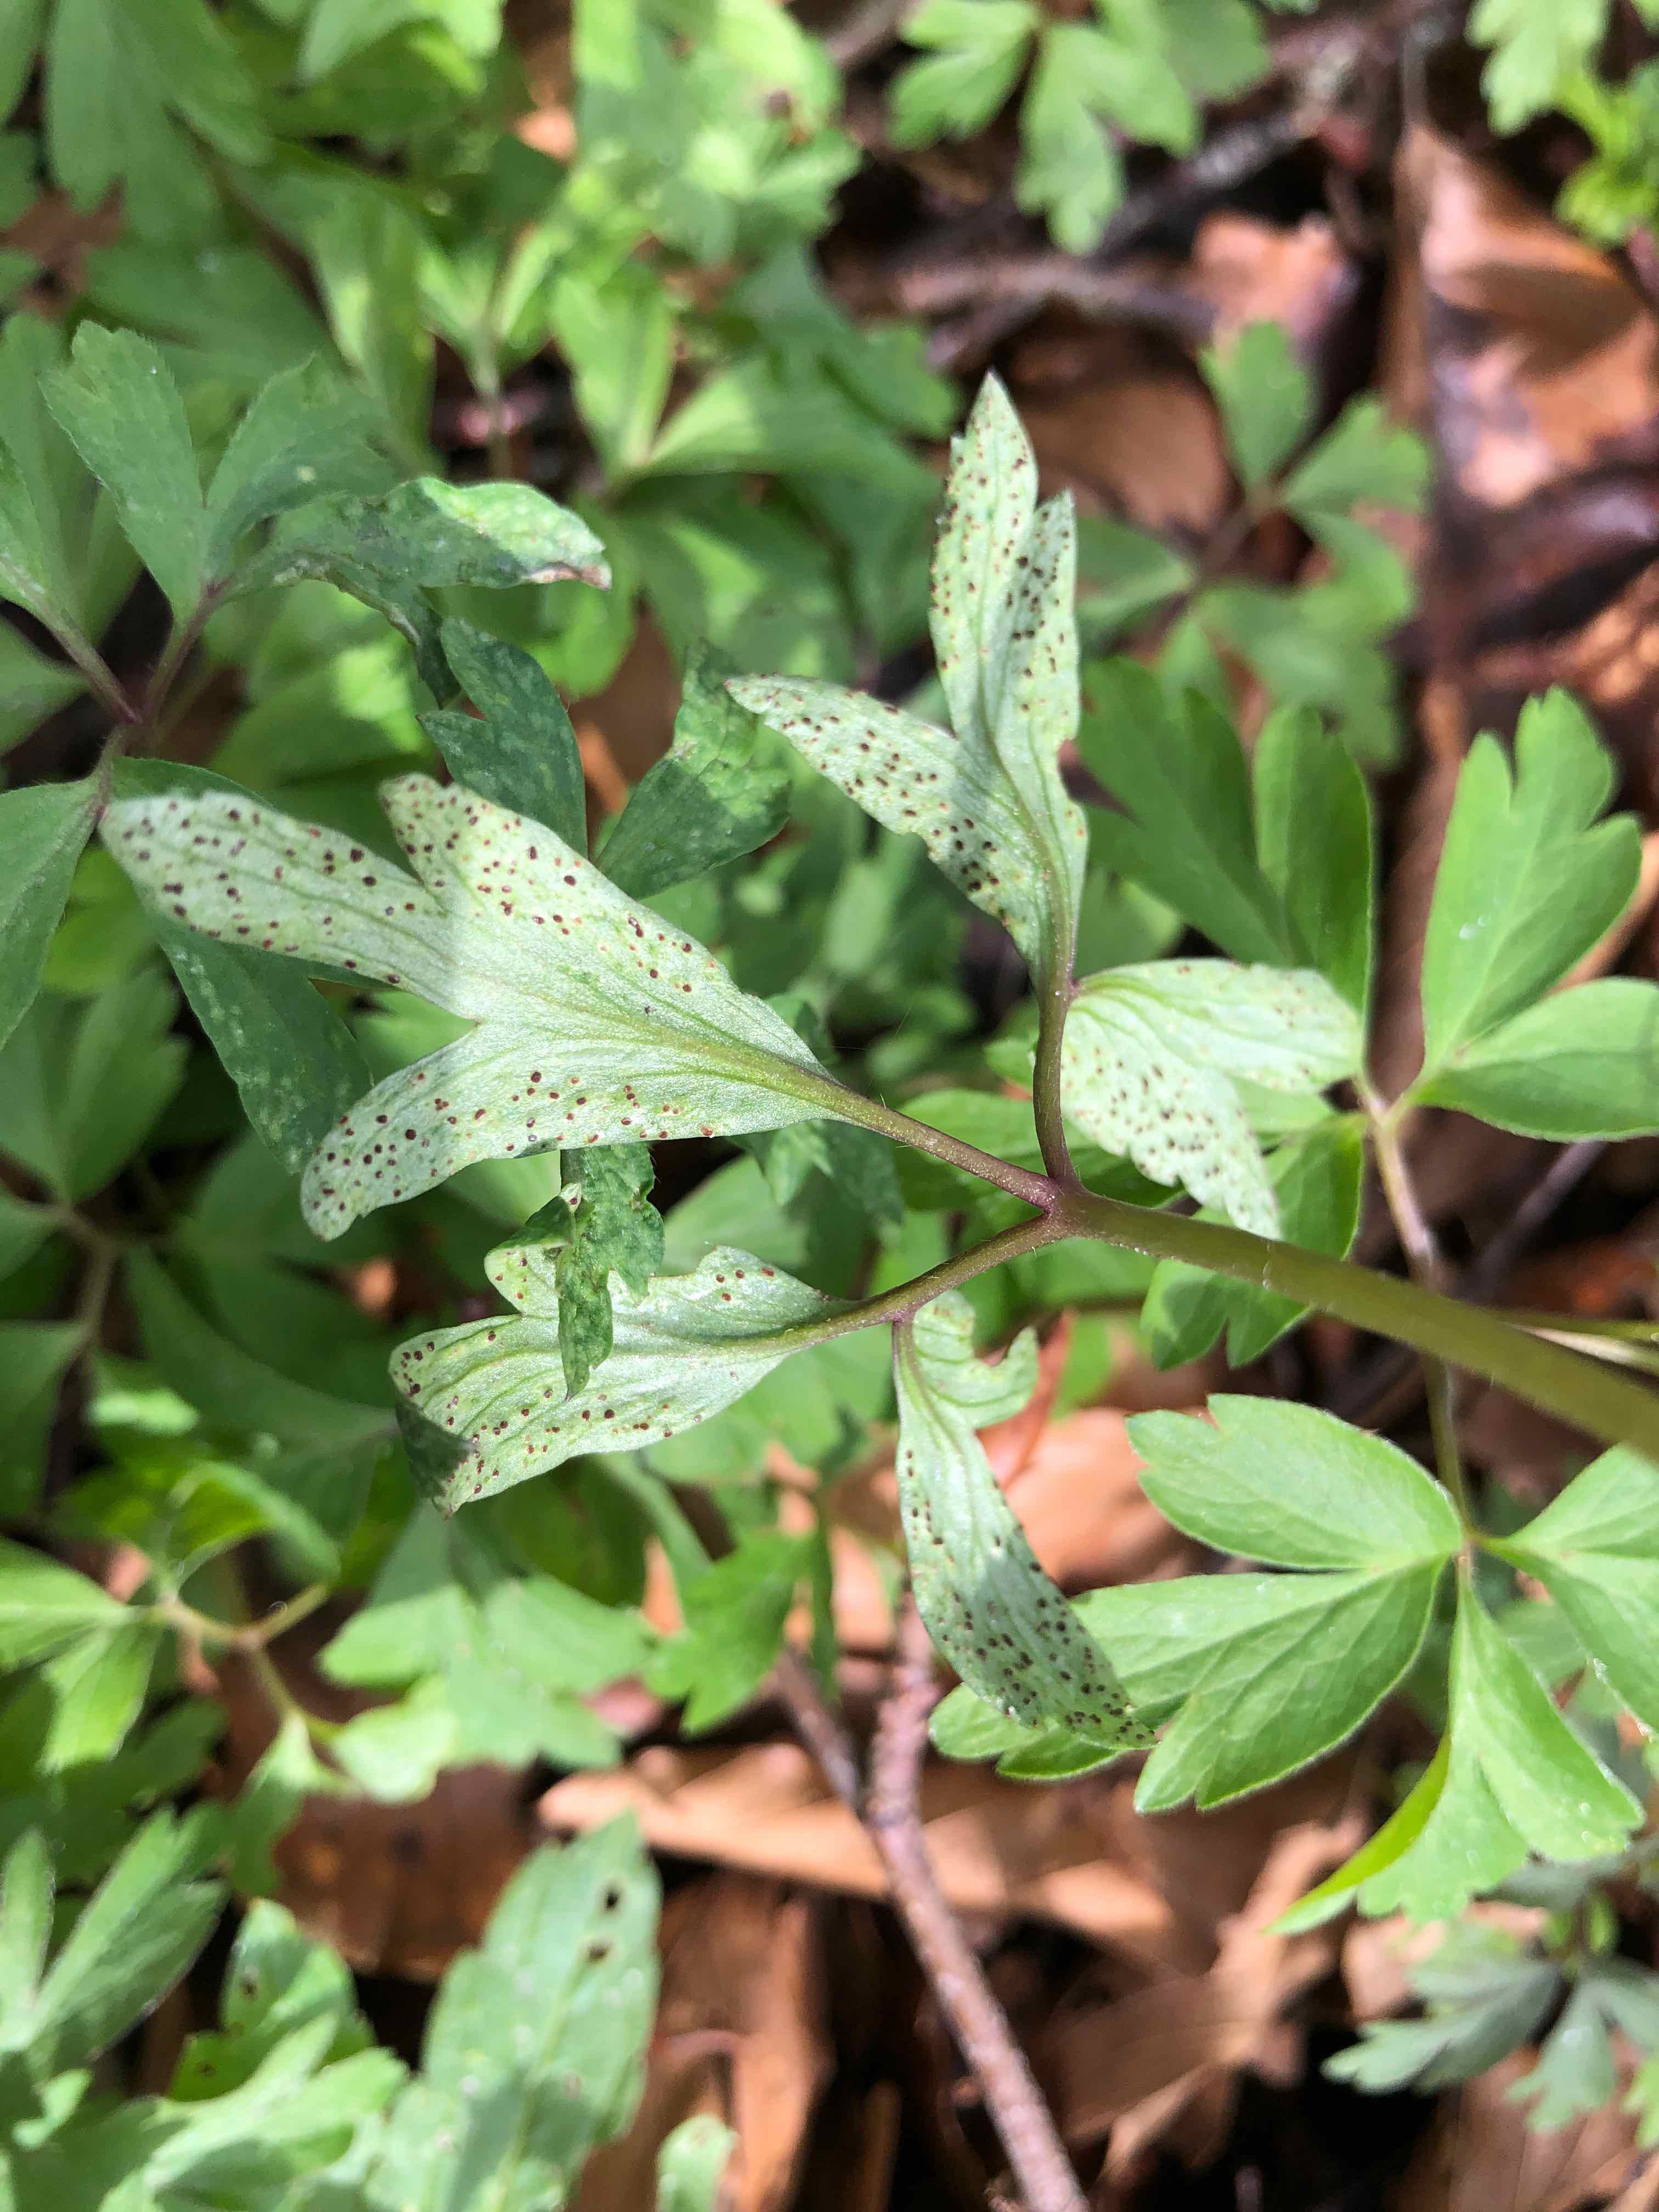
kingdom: Fungi
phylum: Basidiomycota
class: Pucciniomycetes
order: Pucciniales
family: Tranzscheliaceae
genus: Tranzschelia
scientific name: Tranzschelia anemones
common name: anemone-knæksporerust
